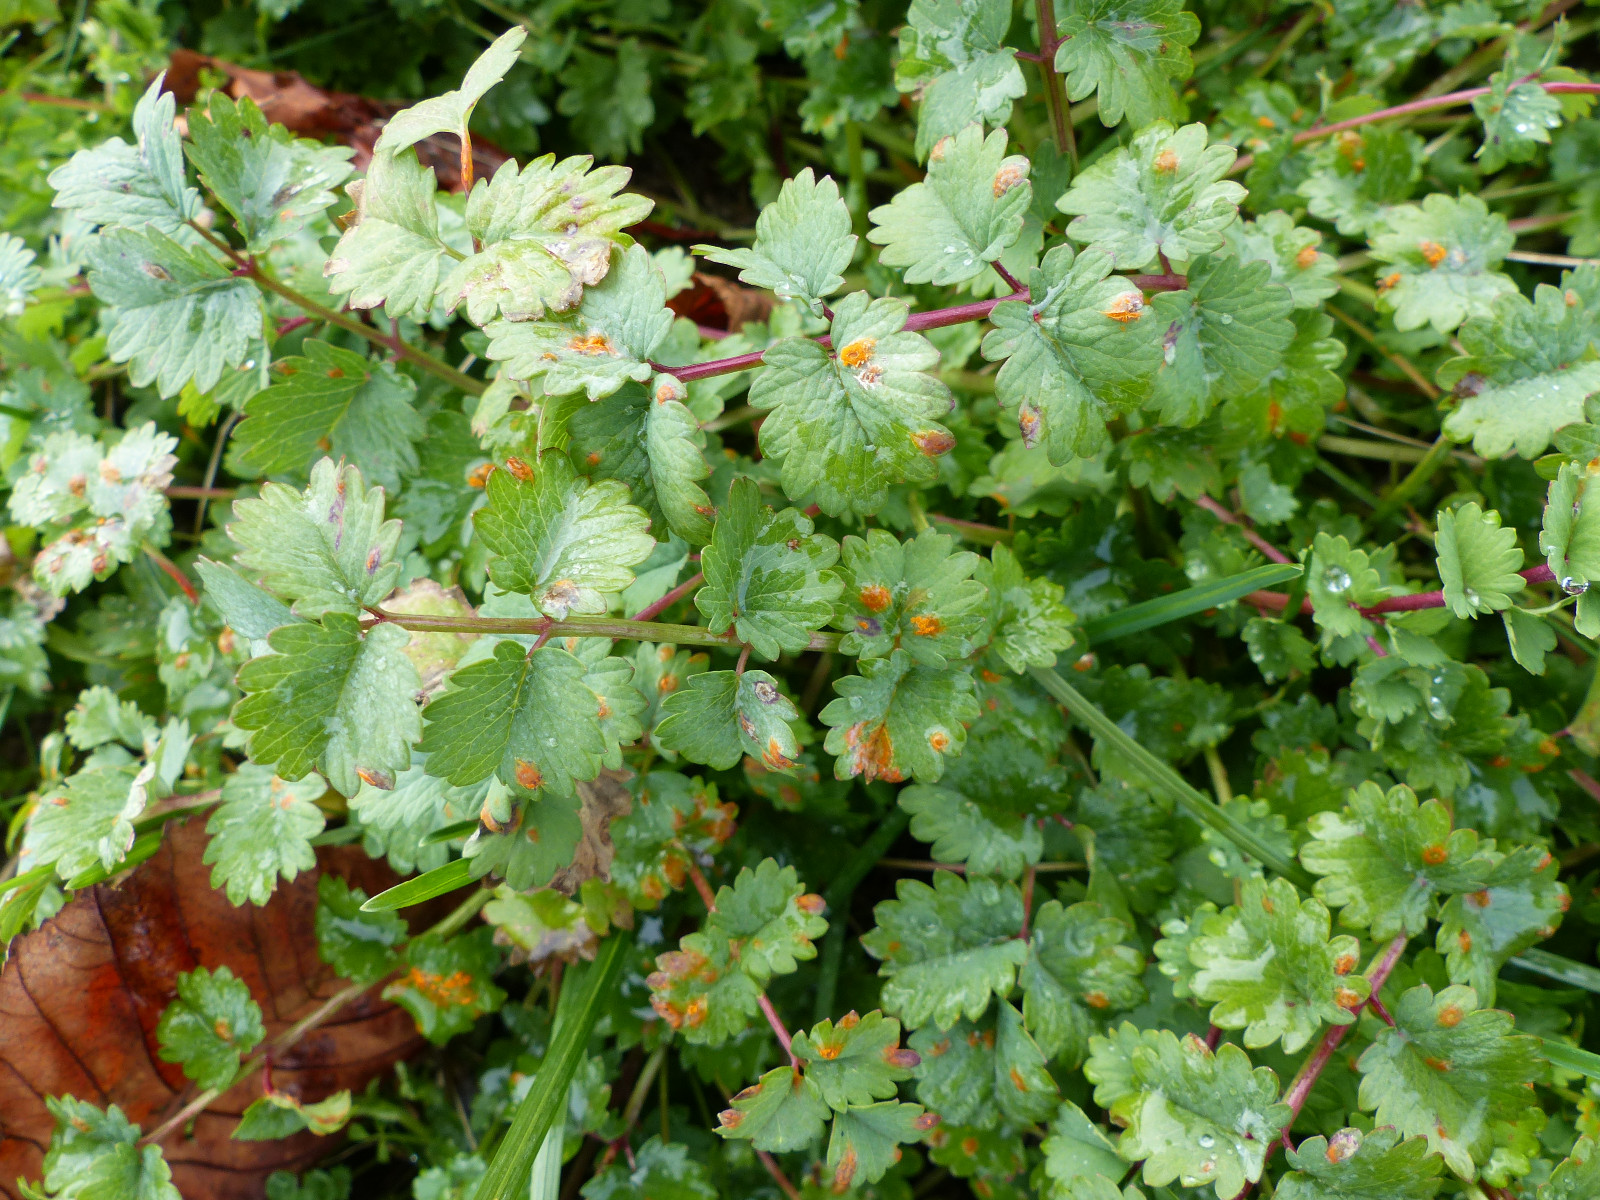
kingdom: Fungi
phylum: Basidiomycota
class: Pucciniomycetes
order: Pucciniales
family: Phragmidiaceae
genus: Phragmidium
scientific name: Phragmidium sanguisorbae
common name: Salad burnet rust
